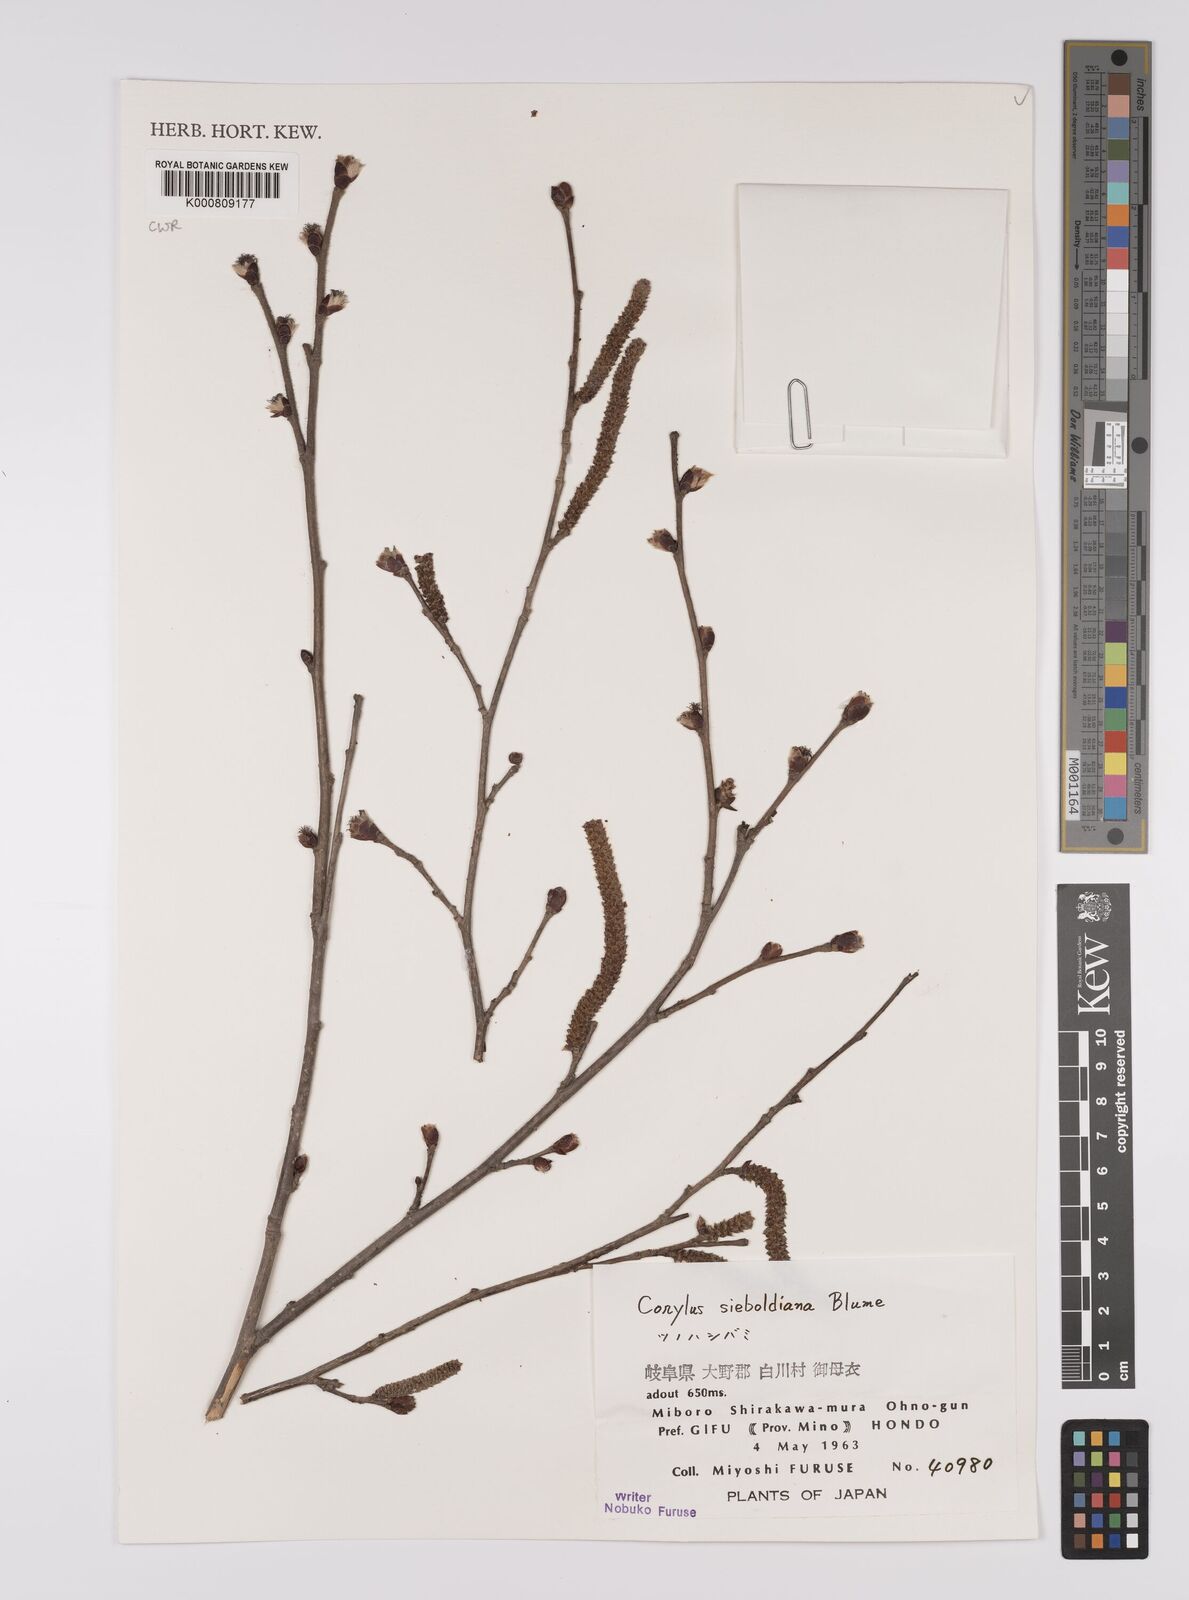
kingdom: Plantae
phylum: Tracheophyta
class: Magnoliopsida
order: Fagales
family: Betulaceae
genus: Corylus
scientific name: Corylus
